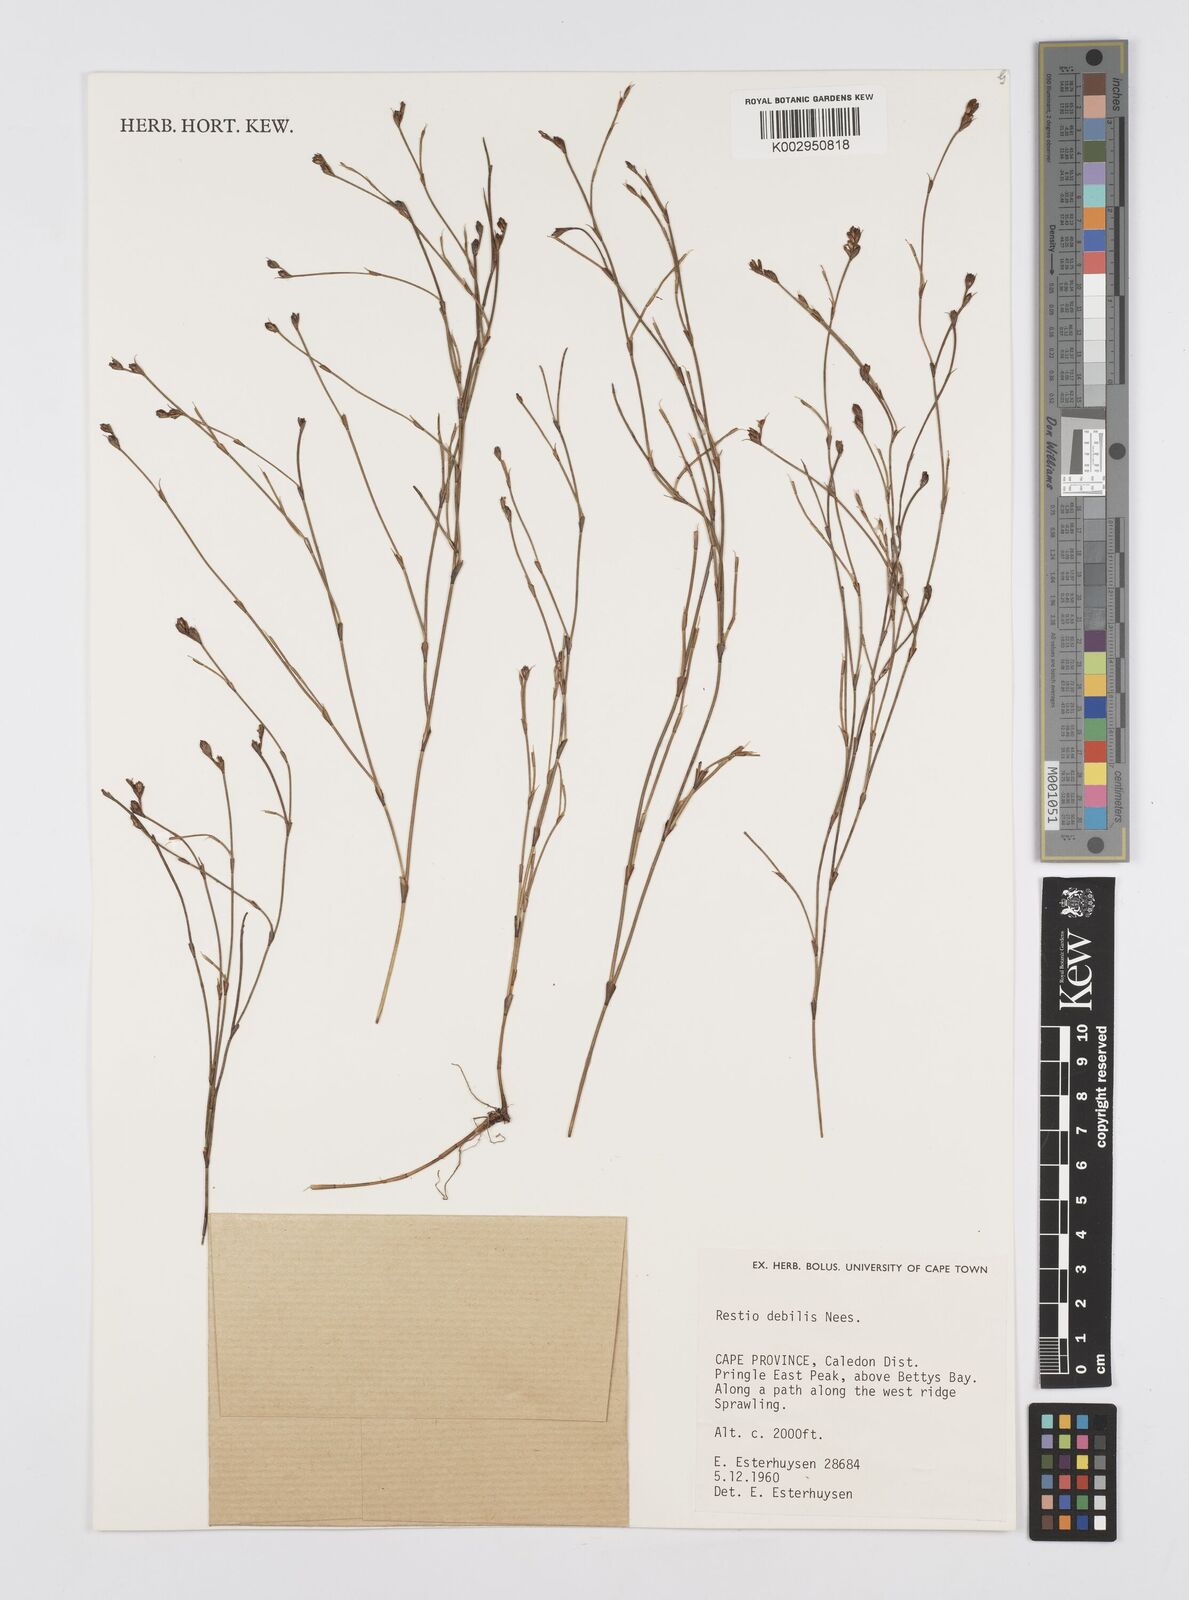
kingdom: Plantae
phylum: Tracheophyta
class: Liliopsida
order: Poales
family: Restionaceae
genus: Restio
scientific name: Restio debilis
